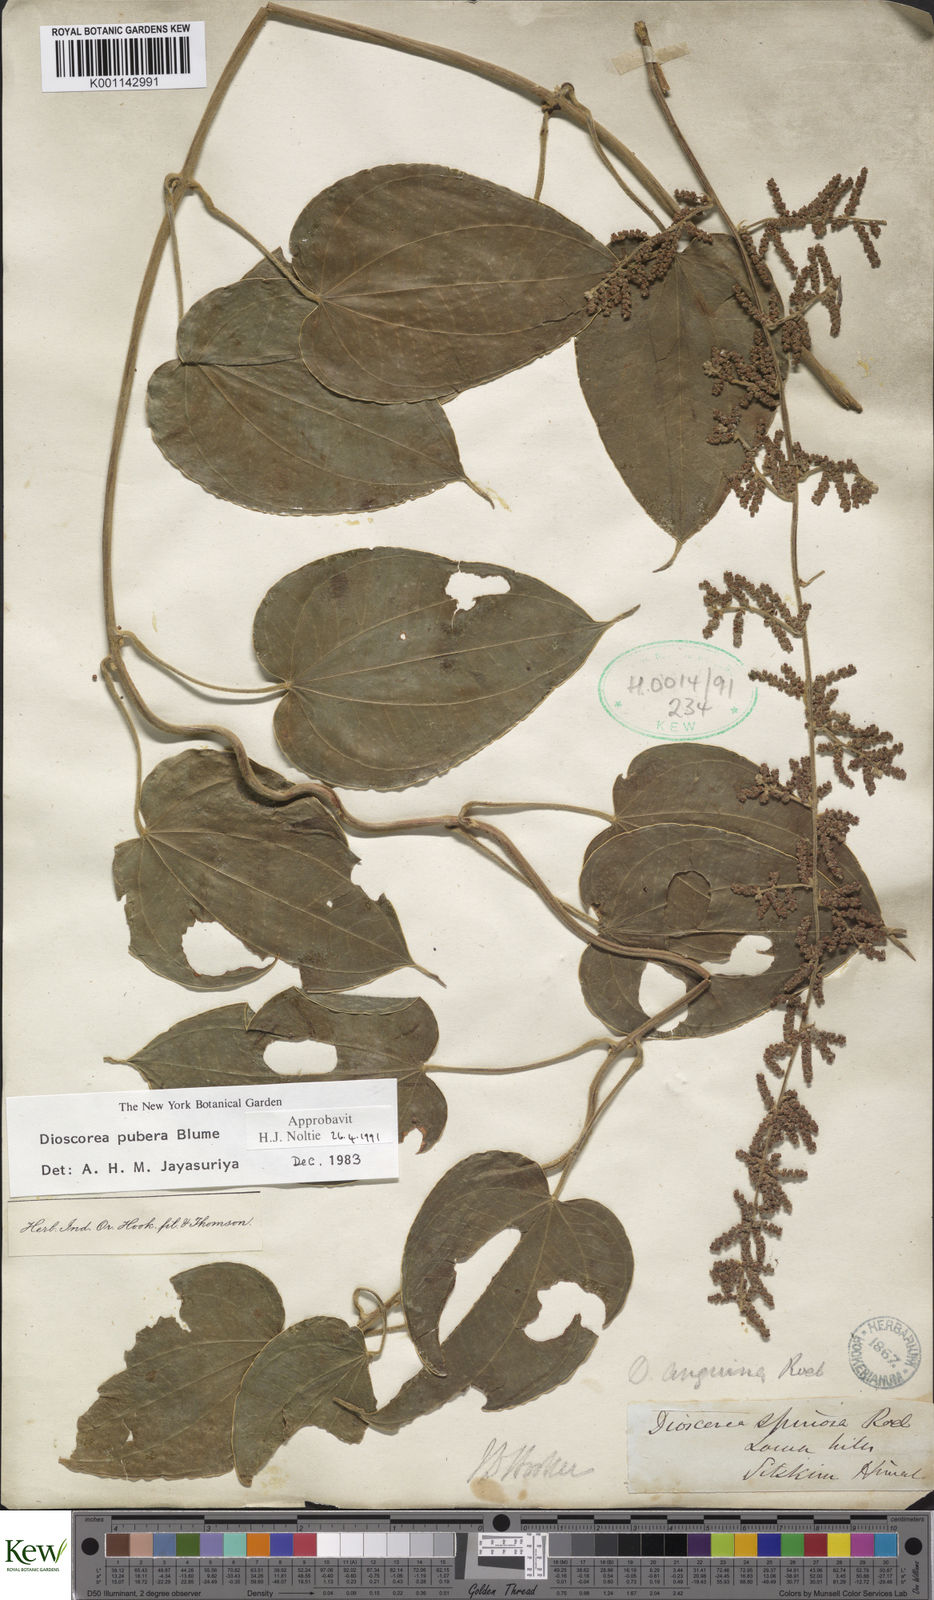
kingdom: Plantae
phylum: Tracheophyta
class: Liliopsida
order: Dioscoreales
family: Dioscoreaceae
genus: Dioscorea
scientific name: Dioscorea pubera
